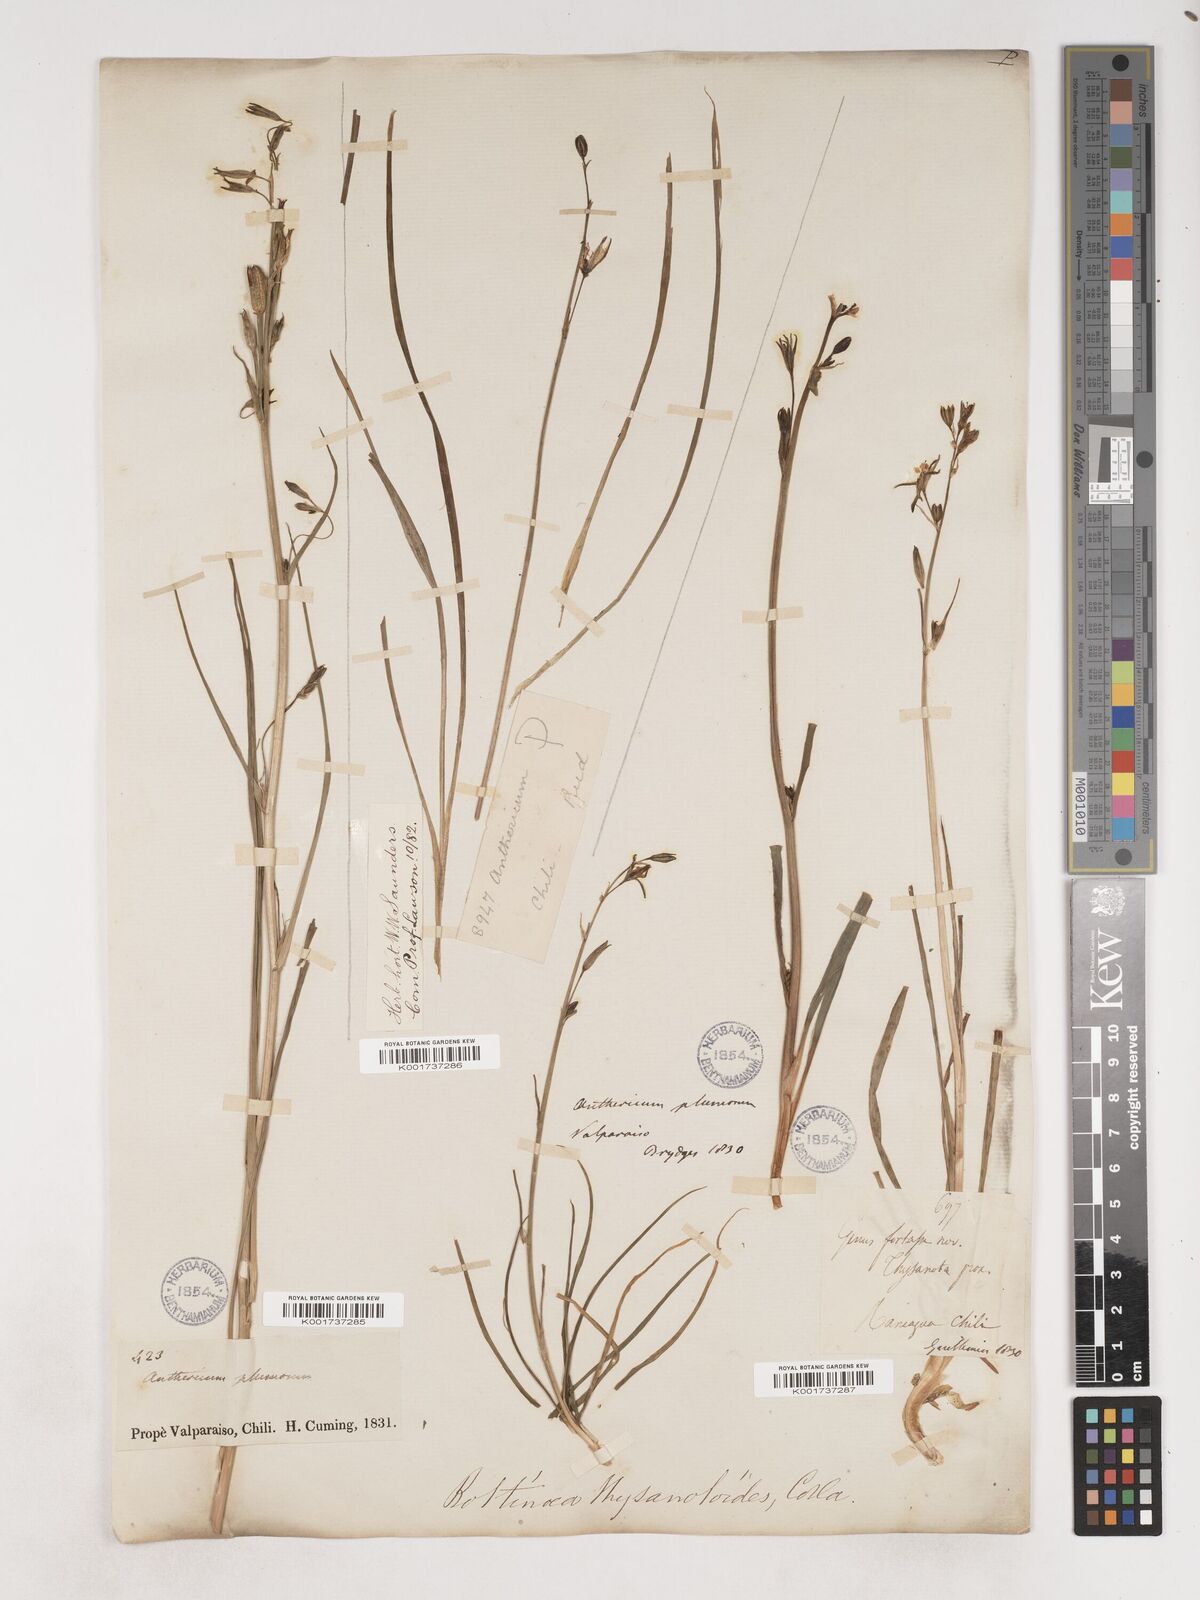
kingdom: Plantae
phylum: Tracheophyta
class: Liliopsida
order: Asparagales
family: Asparagaceae
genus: Trichopetalum
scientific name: Trichopetalum plumosum
